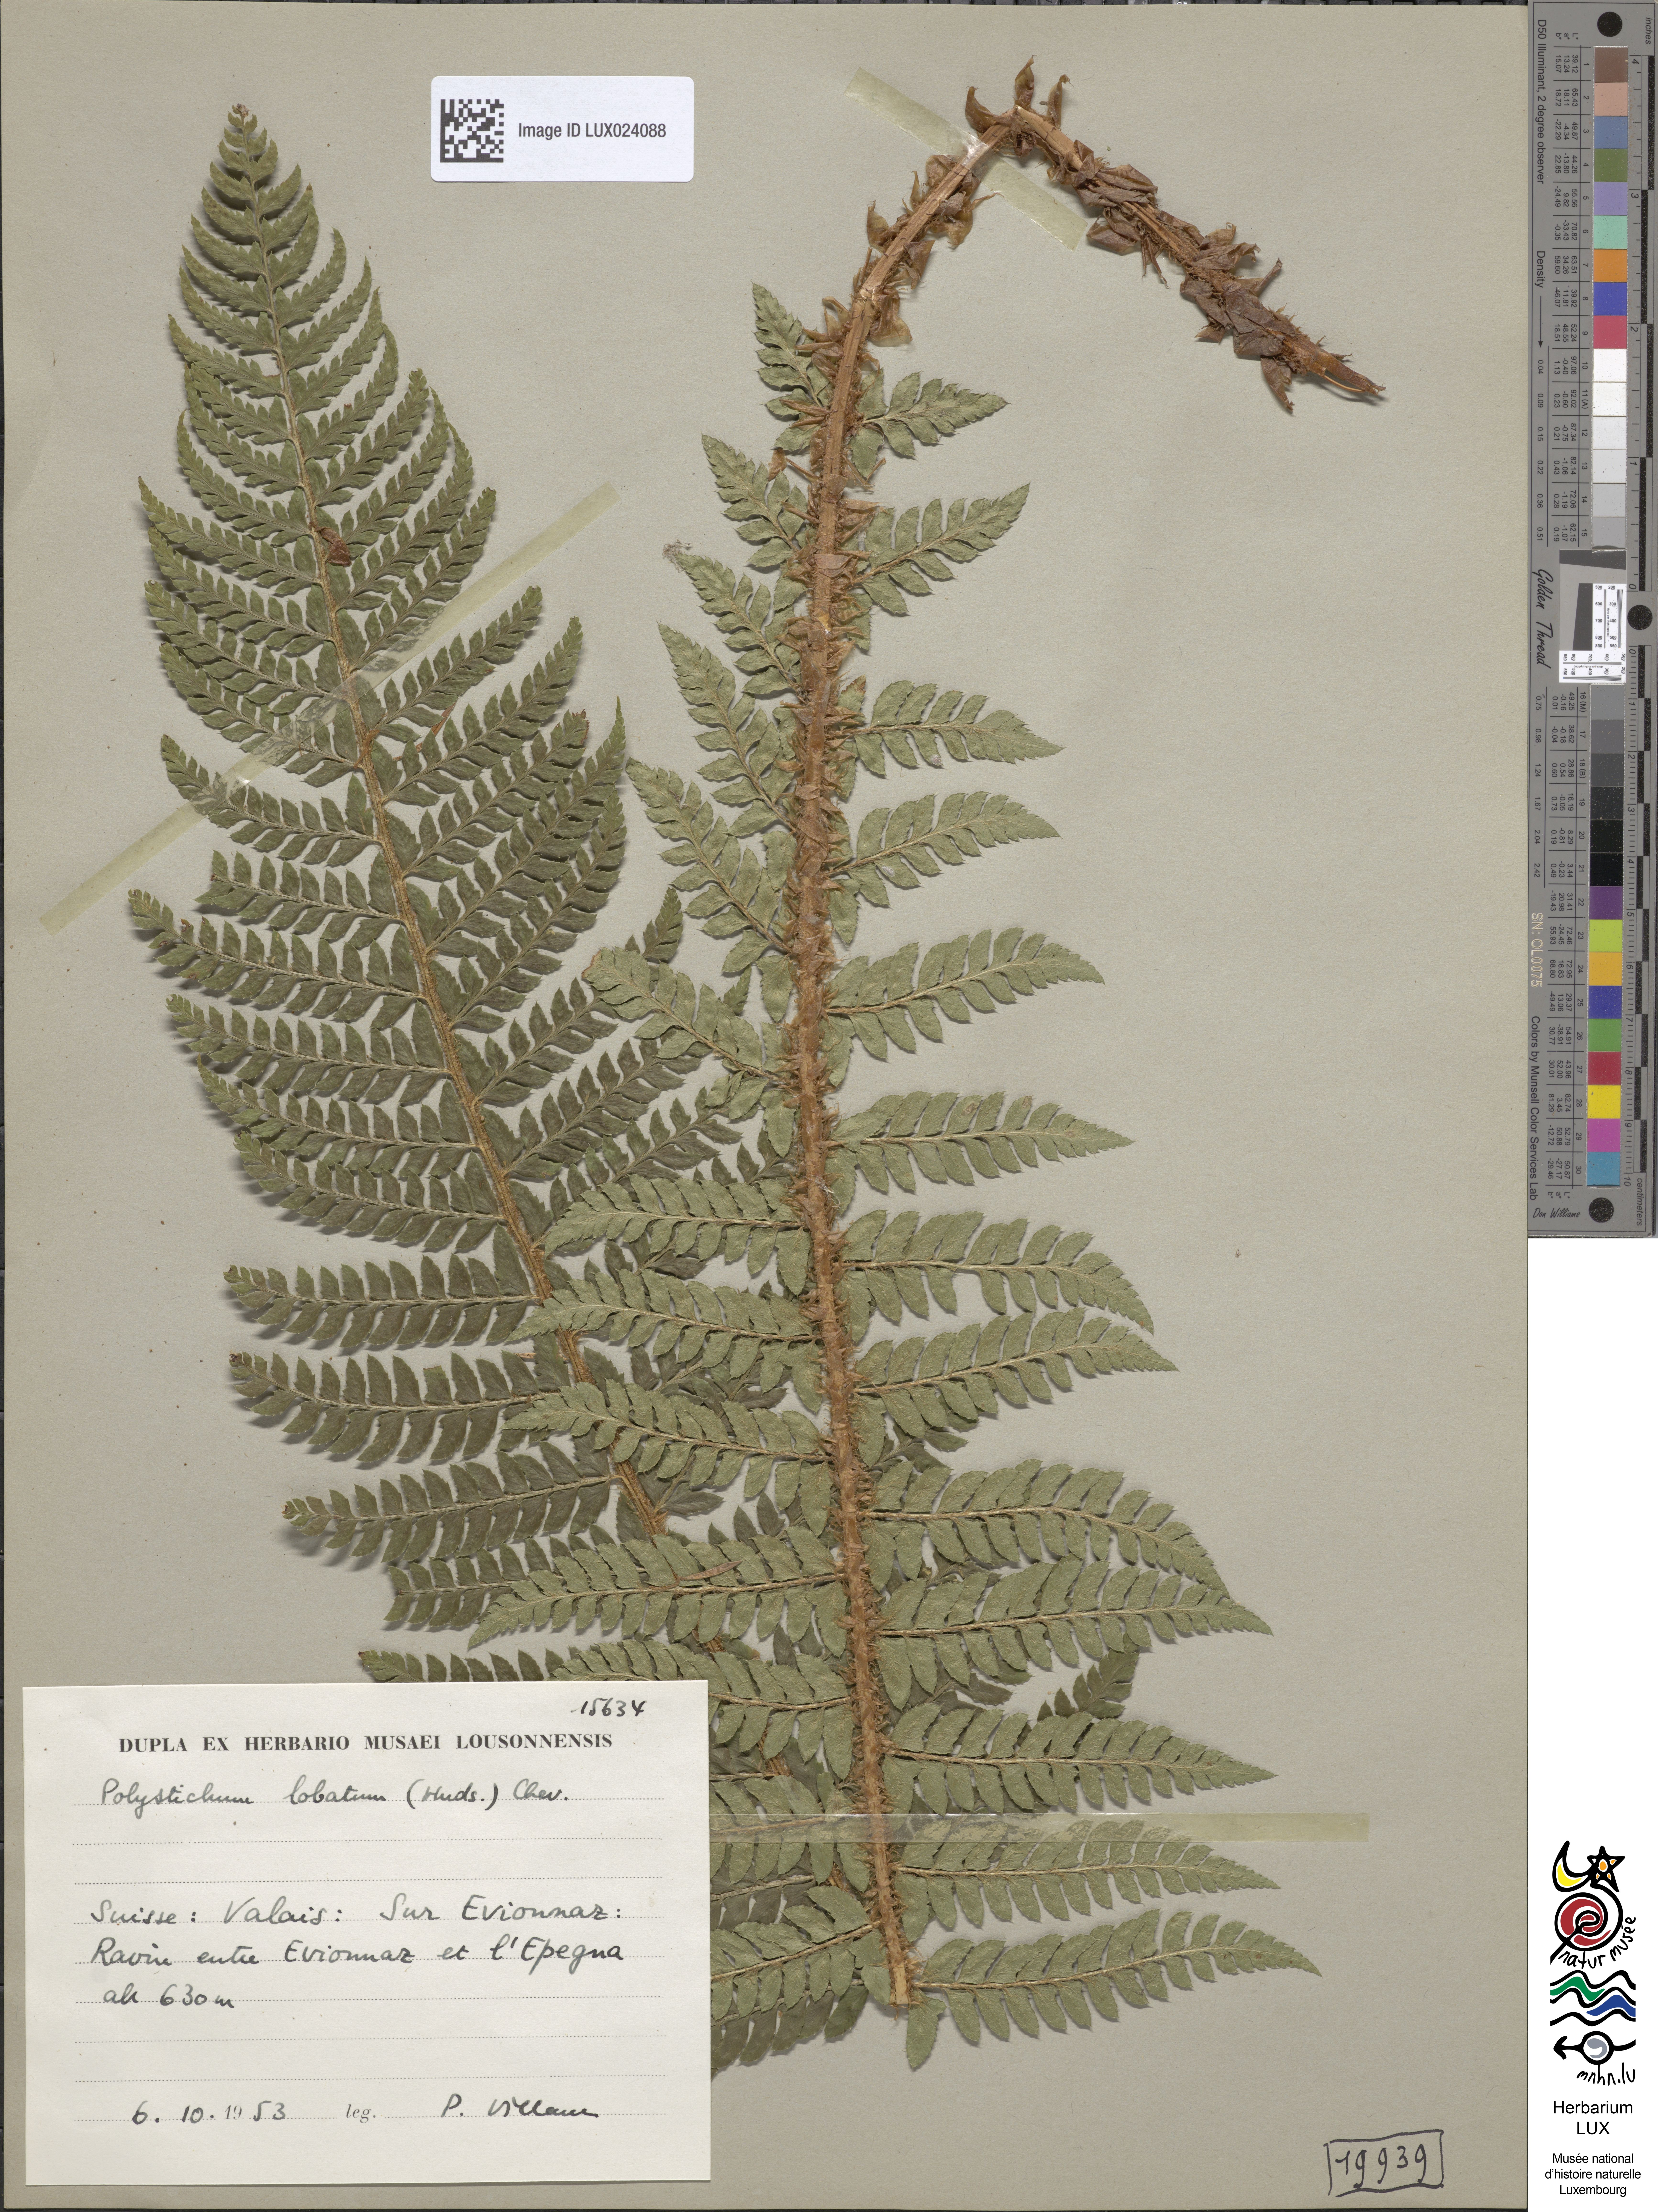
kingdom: Plantae
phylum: Tracheophyta
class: Polypodiopsida
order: Polypodiales
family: Dryopteridaceae
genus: Polystichum
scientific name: Polystichum aculeatum
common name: Hard shield-fern
